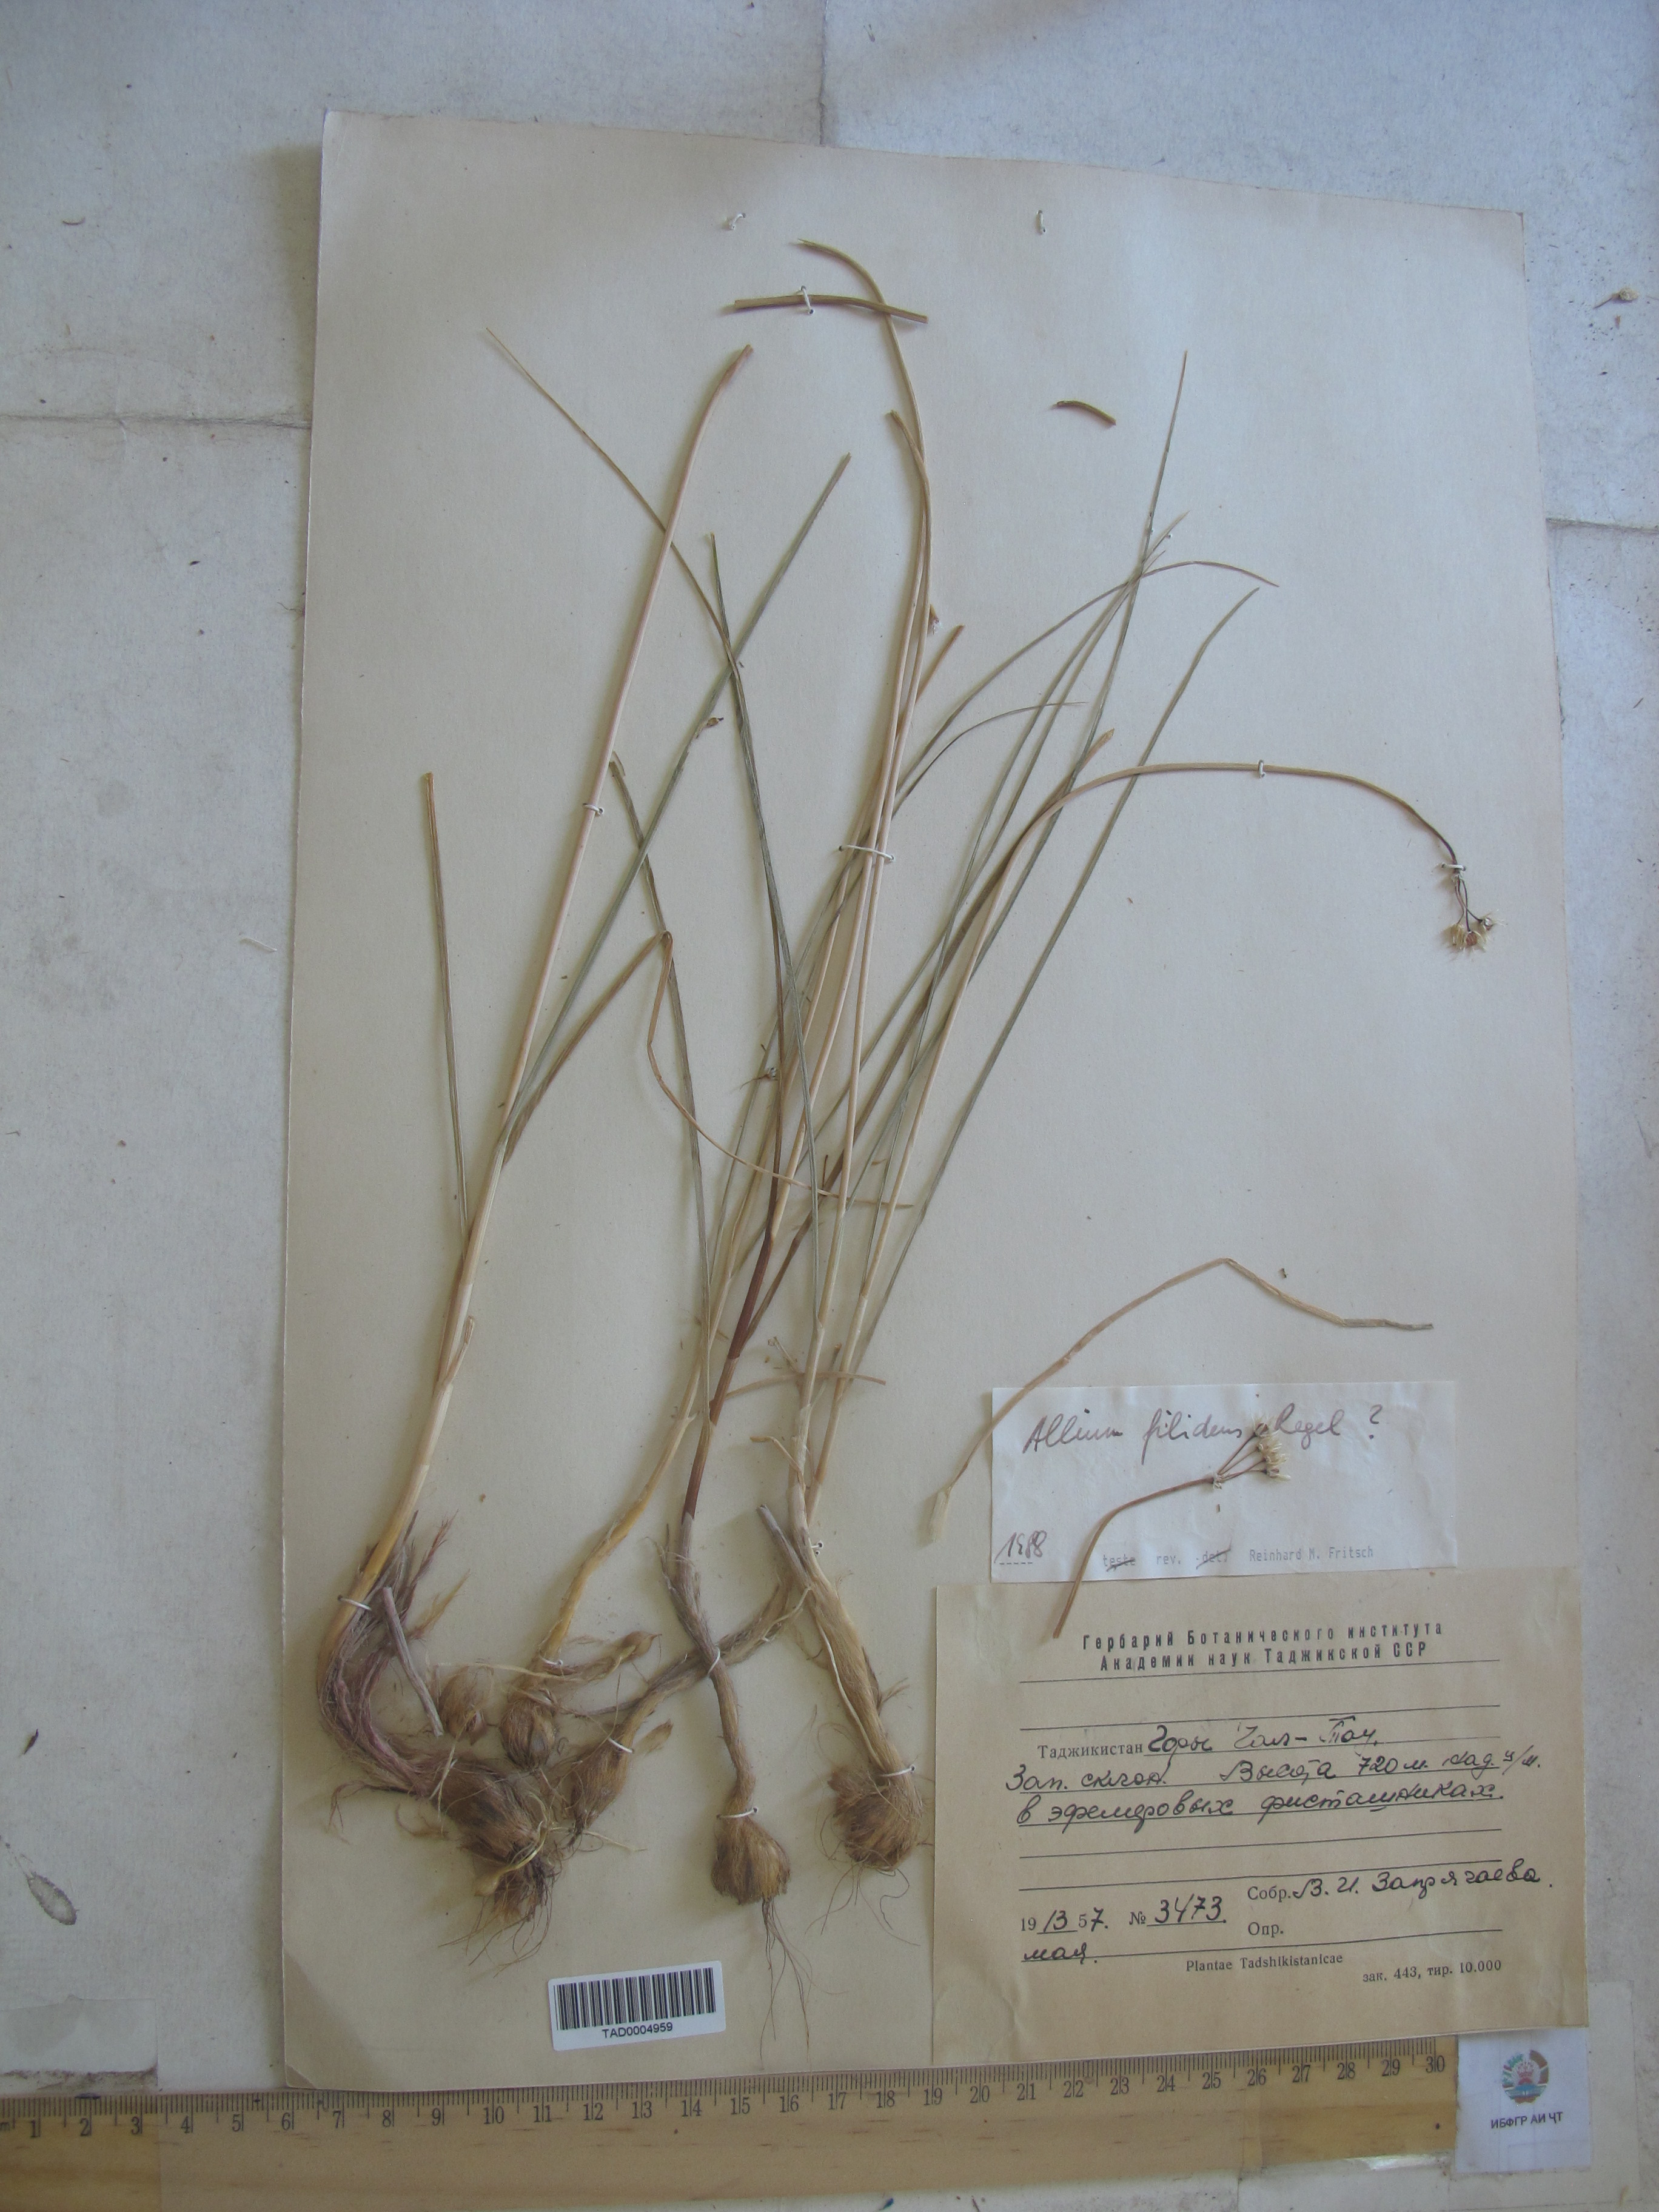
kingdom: Plantae
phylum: Tracheophyta
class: Liliopsida
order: Asparagales
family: Amaryllidaceae
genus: Allium
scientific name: Allium filidens
